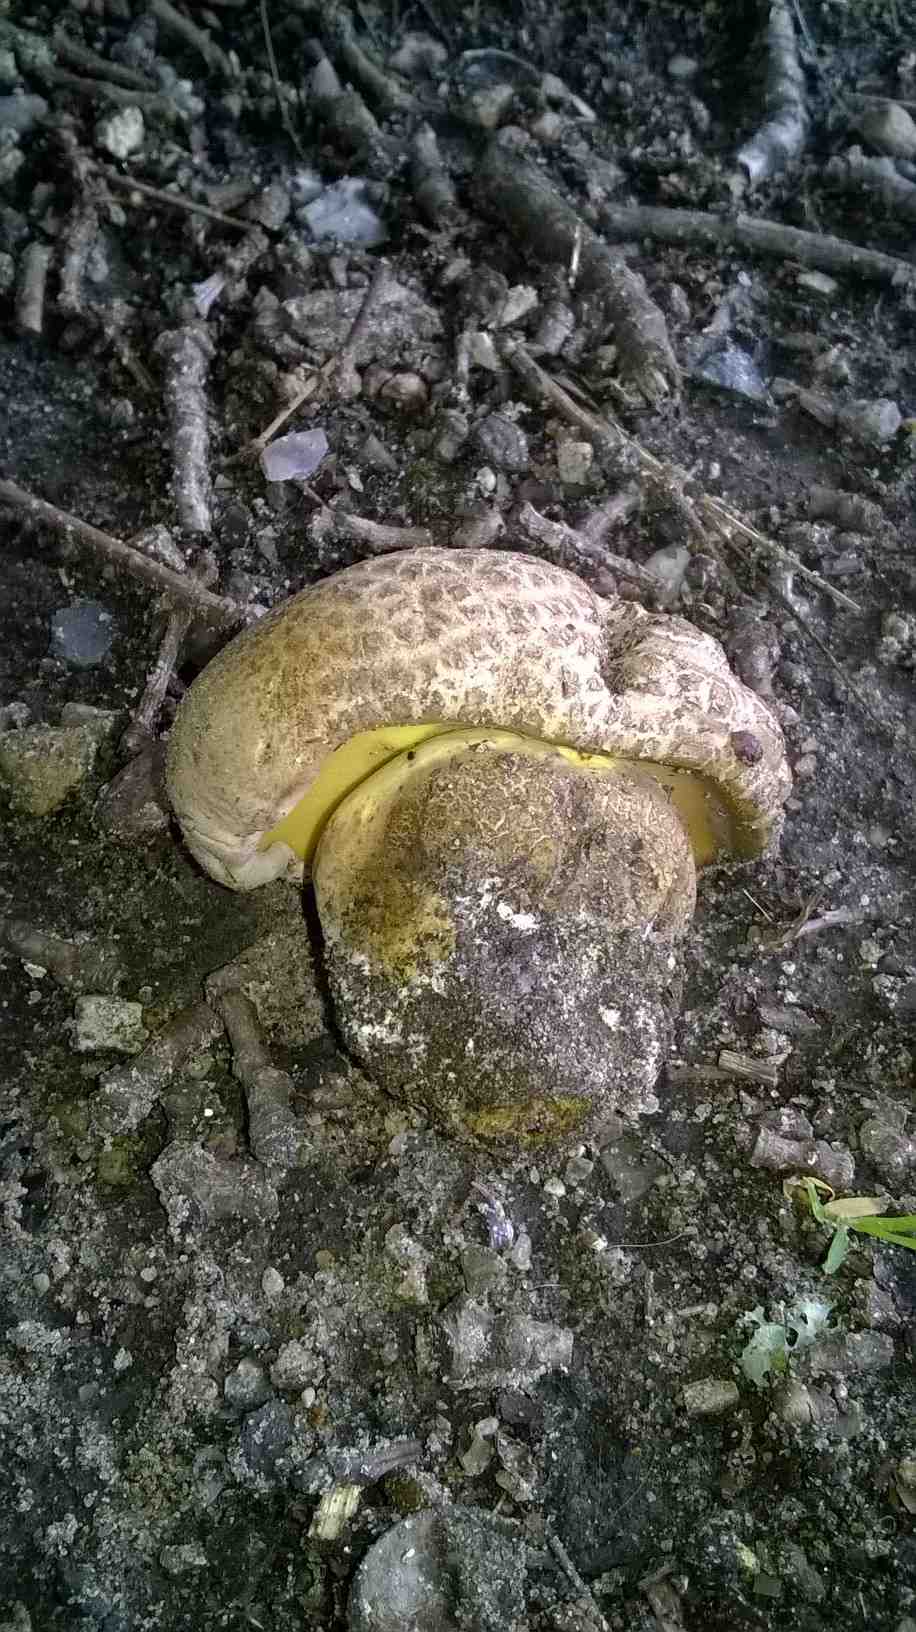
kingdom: Fungi
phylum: Basidiomycota
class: Agaricomycetes
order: Boletales
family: Boletaceae
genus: Caloboletus
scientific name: Caloboletus radicans
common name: rod-rørhat
